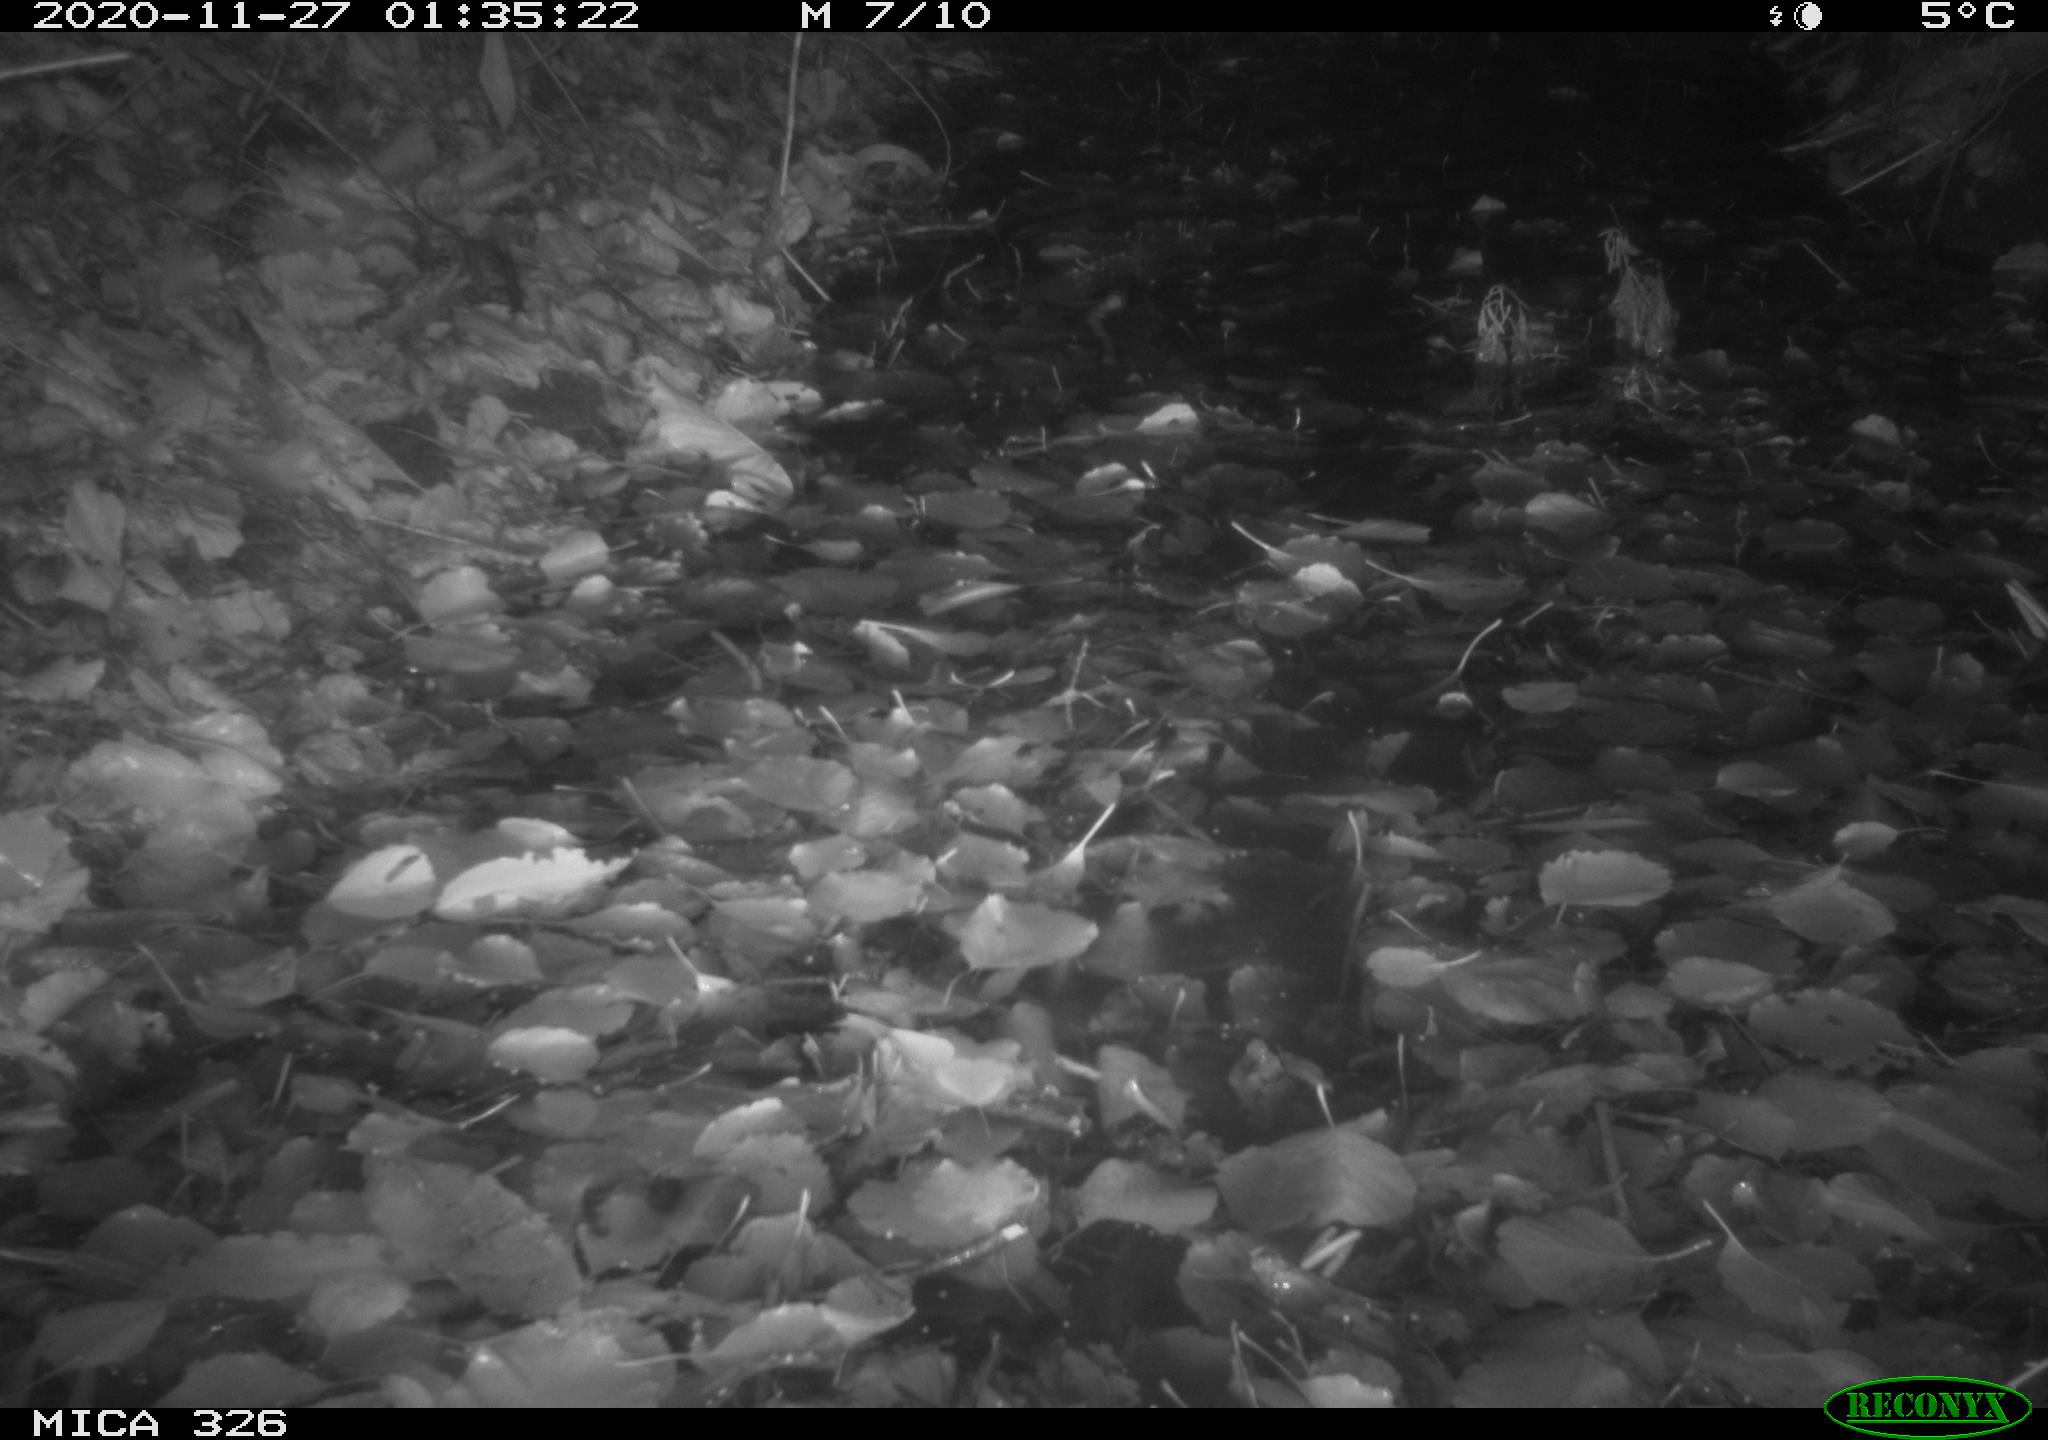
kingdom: Animalia
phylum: Chordata
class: Mammalia
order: Carnivora
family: Mustelidae
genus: Lutra
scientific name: Lutra lutra
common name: European otter
